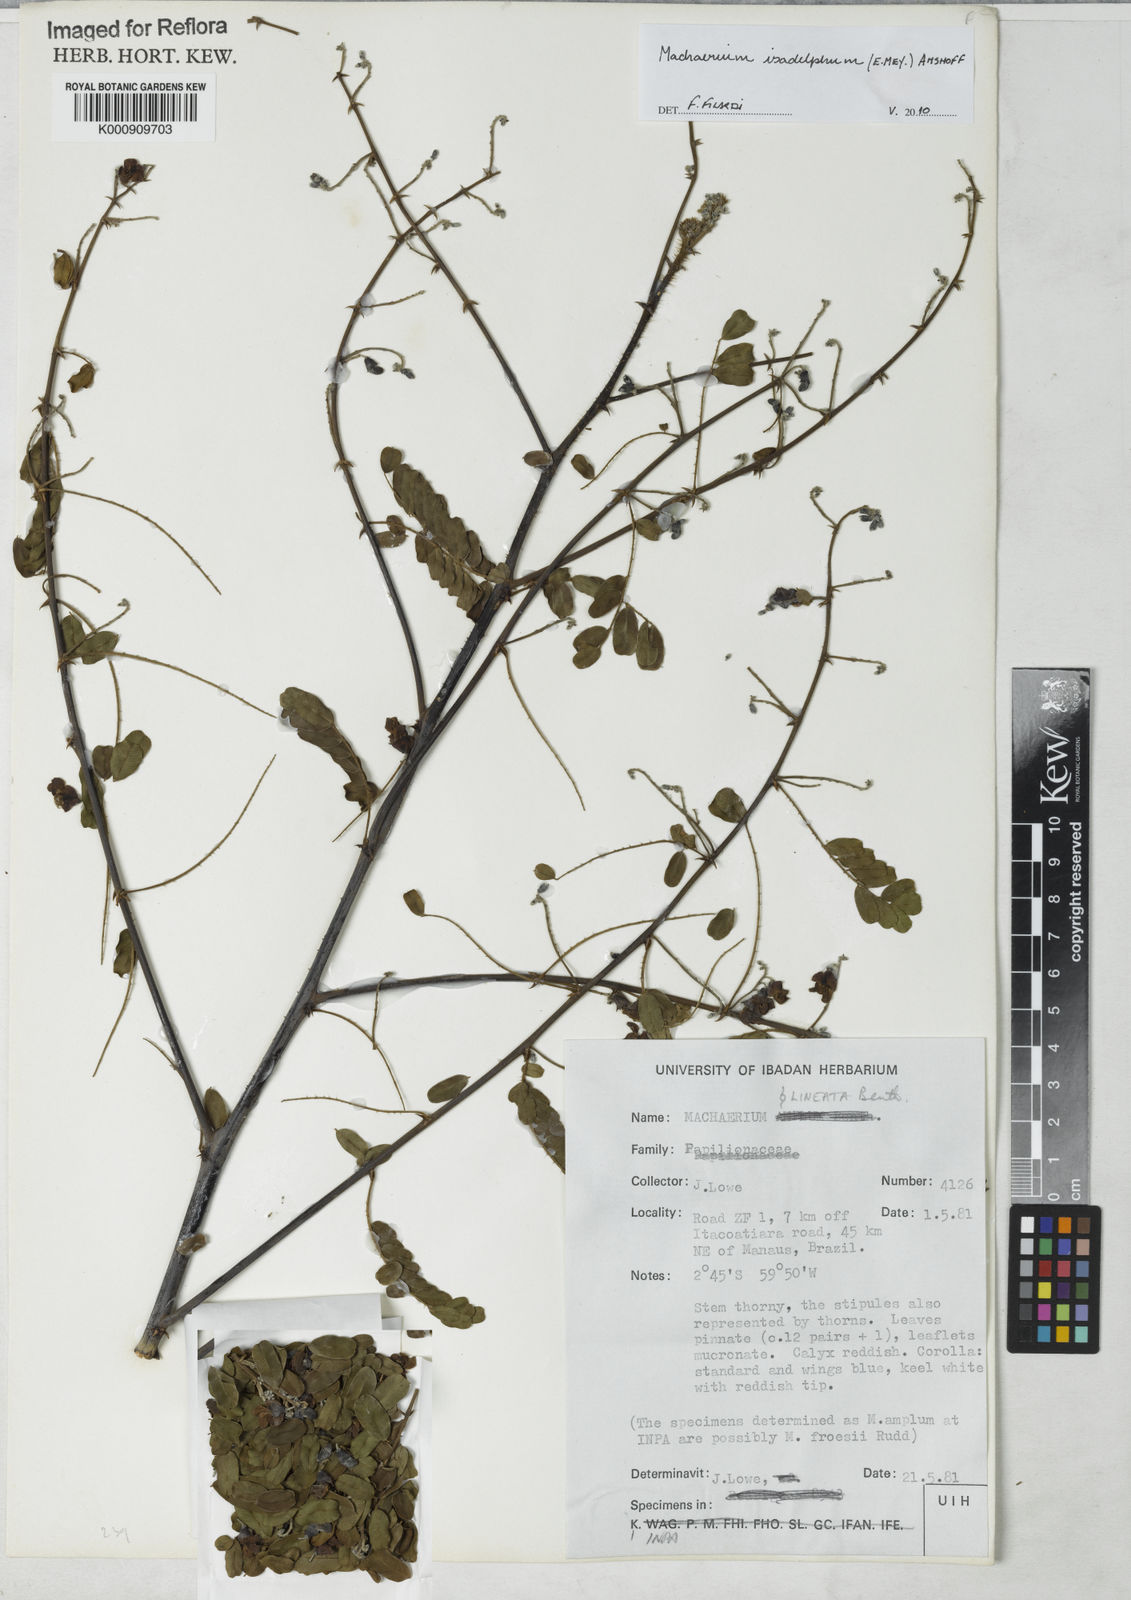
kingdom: Plantae
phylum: Tracheophyta
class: Magnoliopsida
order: Fabales
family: Fabaceae
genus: Machaerium
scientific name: Machaerium isadelphum
